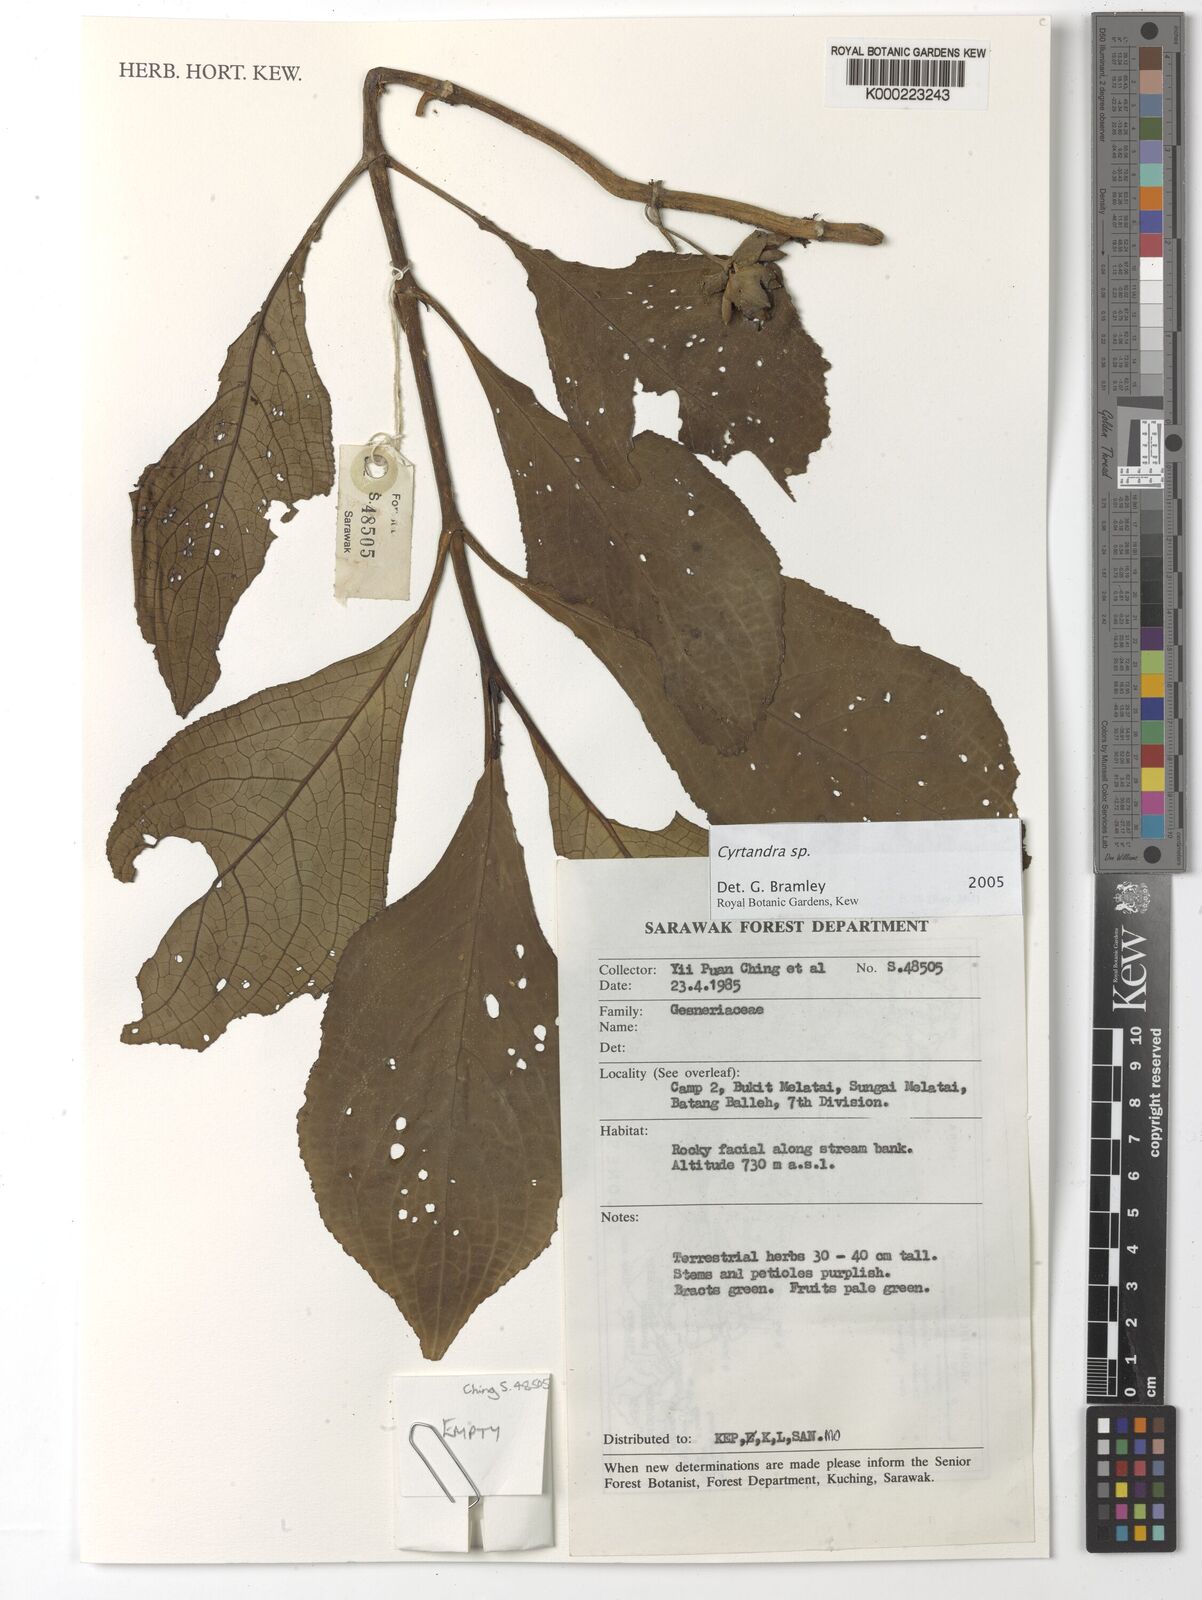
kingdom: Plantae
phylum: Tracheophyta
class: Magnoliopsida
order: Lamiales
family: Gesneriaceae
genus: Cyrtandra
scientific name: Cyrtandra
